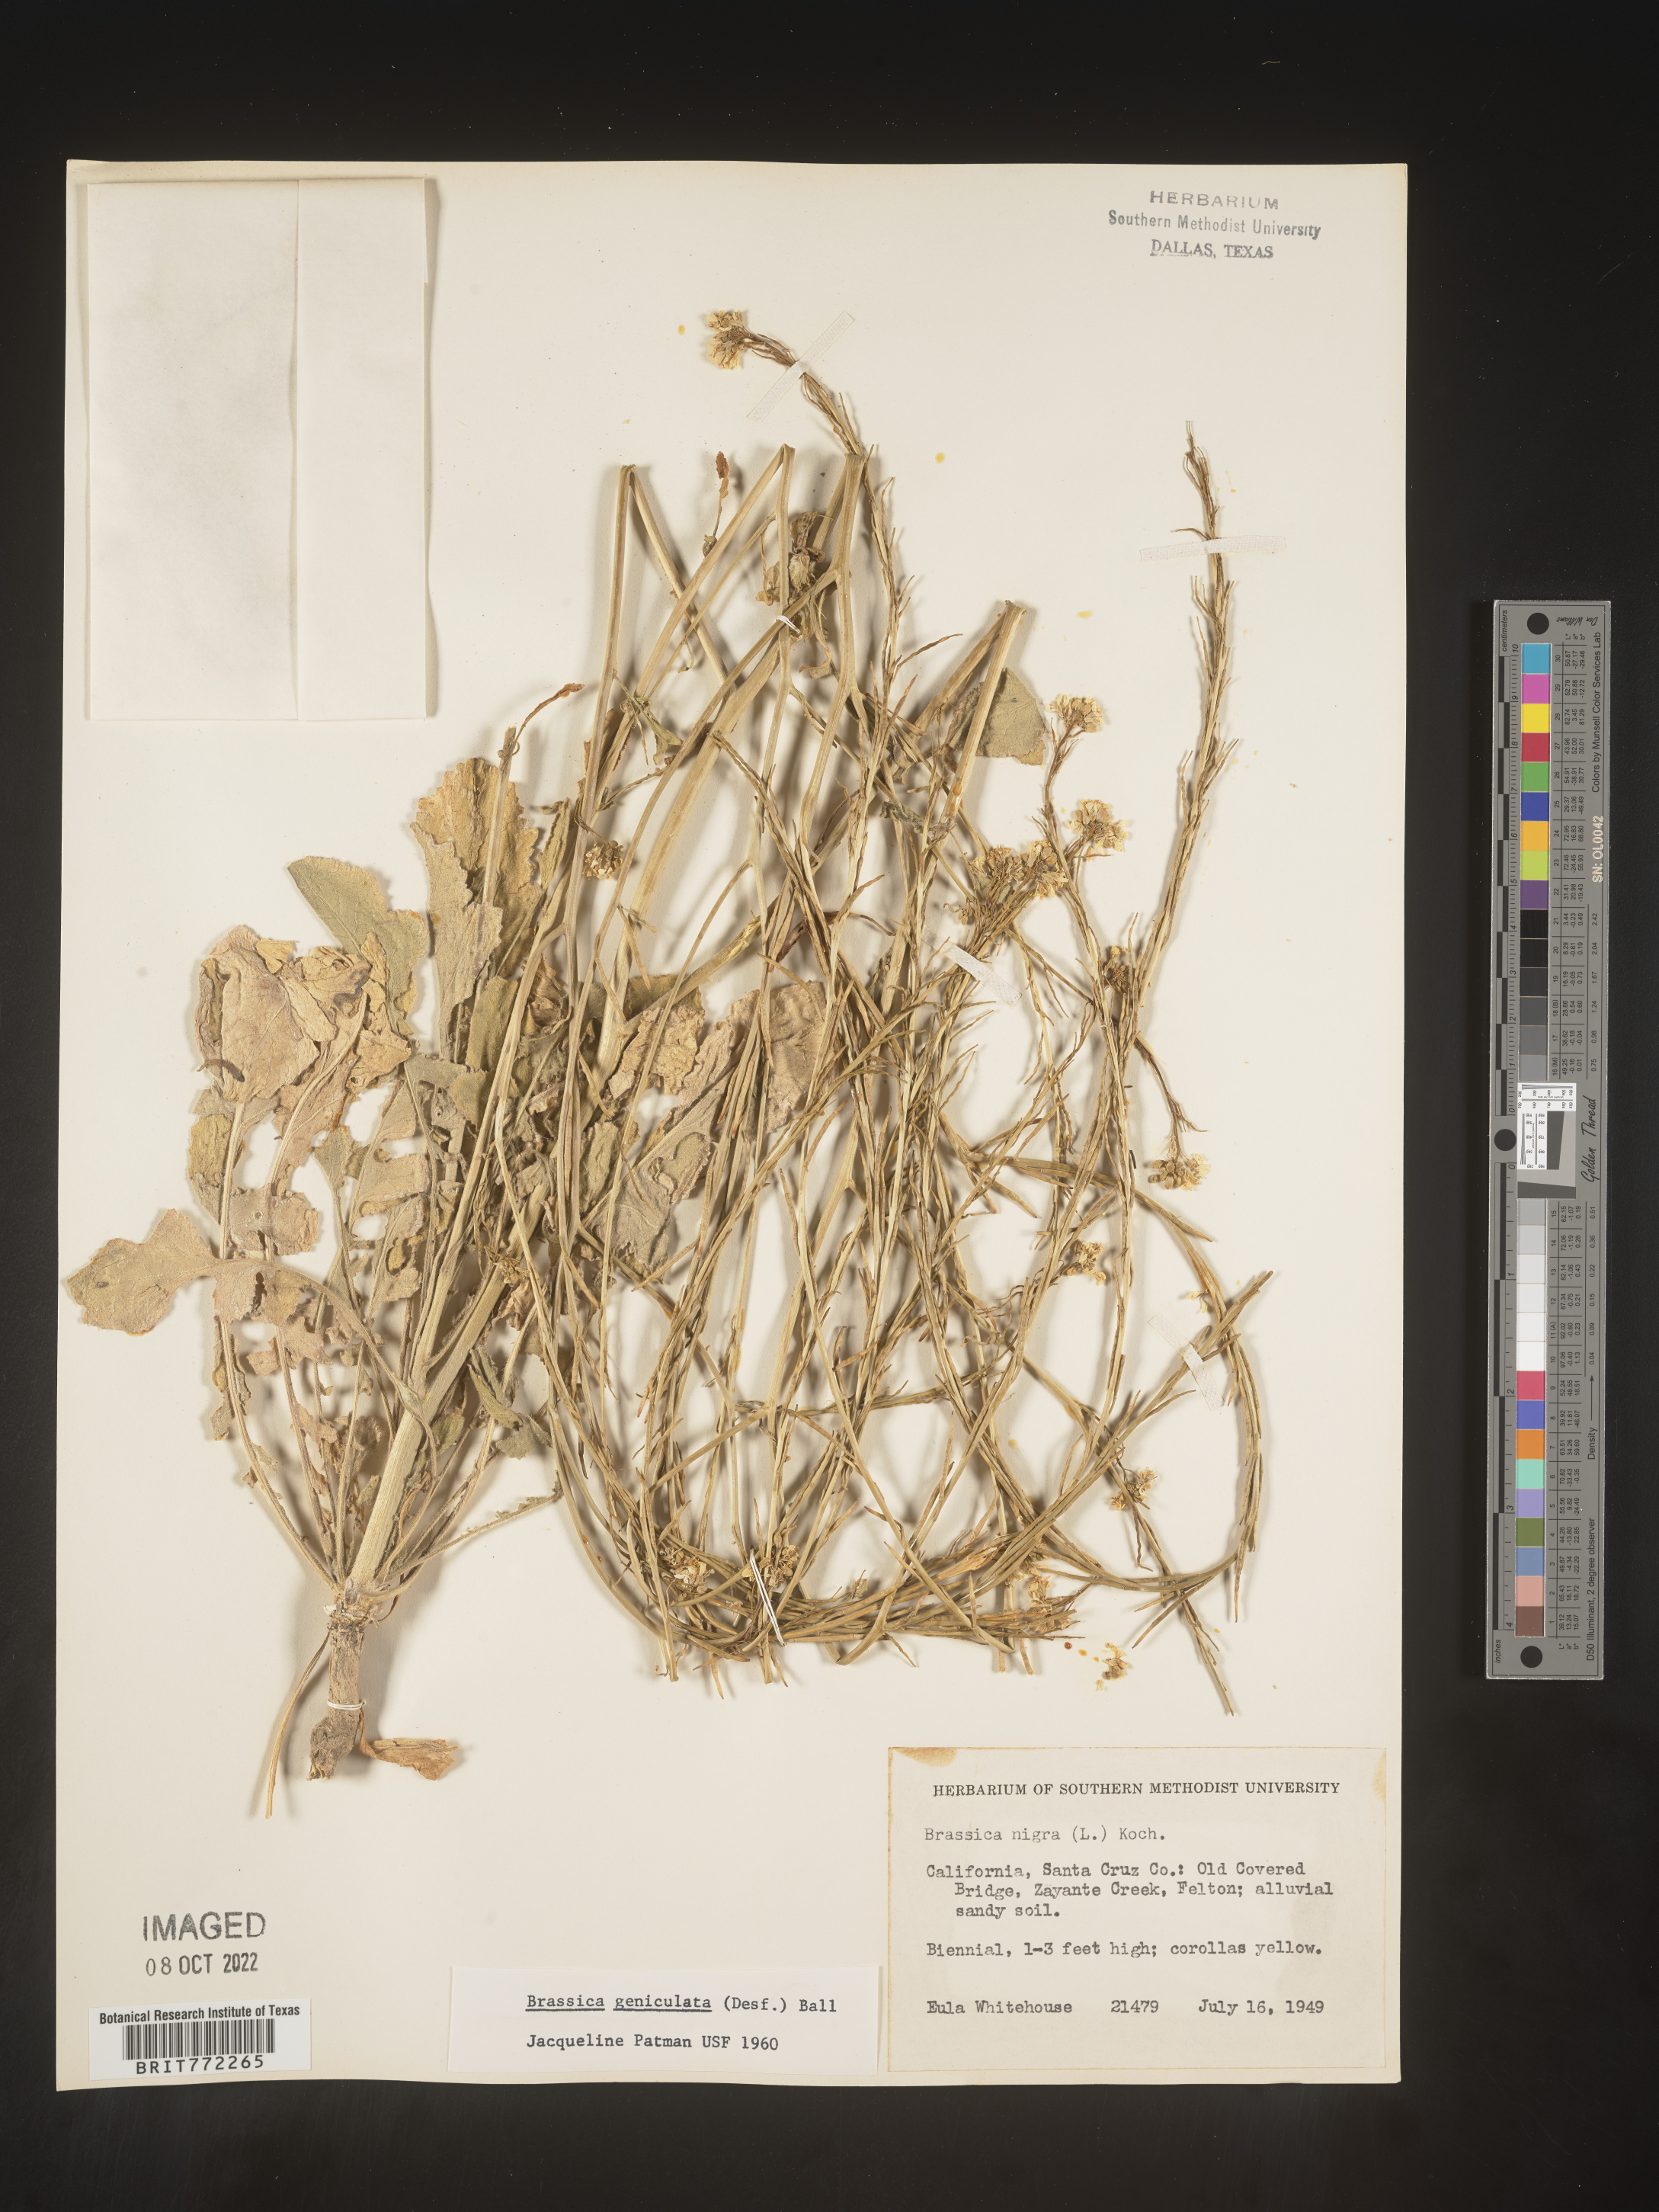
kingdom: Plantae
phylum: Tracheophyta
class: Magnoliopsida
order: Brassicales
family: Brassicaceae
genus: Hirschfeldia
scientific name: Hirschfeldia incana
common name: Hoary mustard
